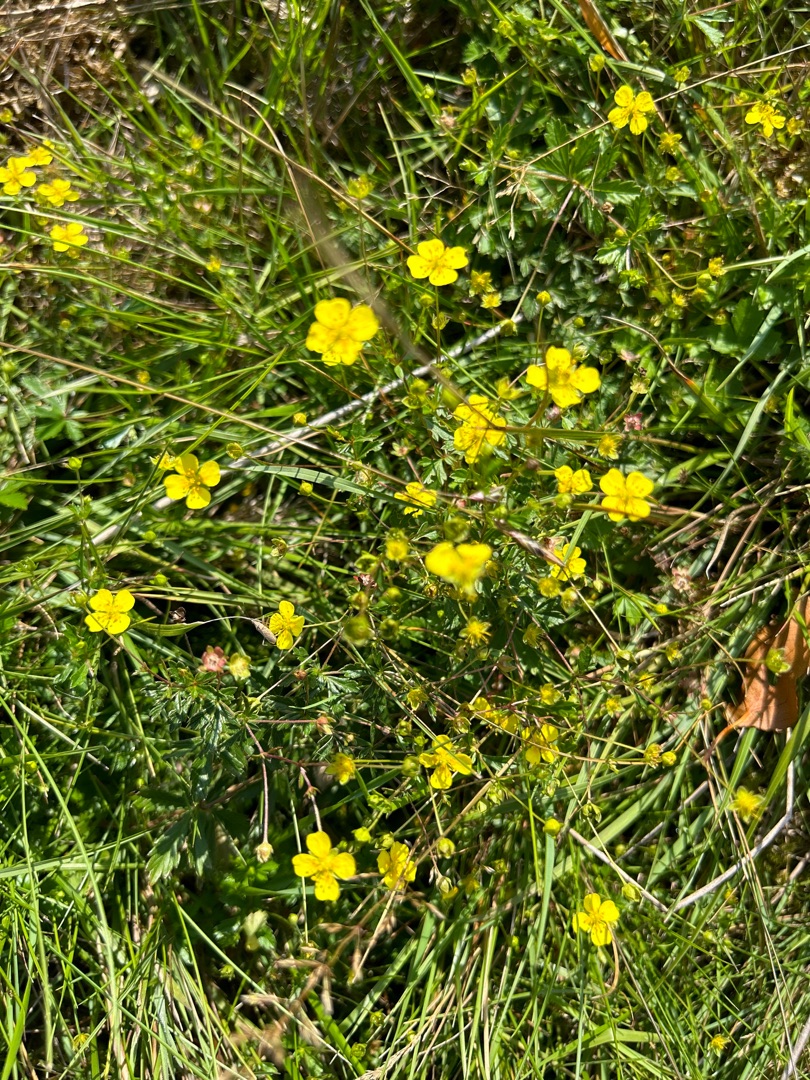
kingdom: Plantae
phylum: Tracheophyta
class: Magnoliopsida
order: Rosales
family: Rosaceae
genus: Potentilla
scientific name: Potentilla erecta
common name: Tormentil
